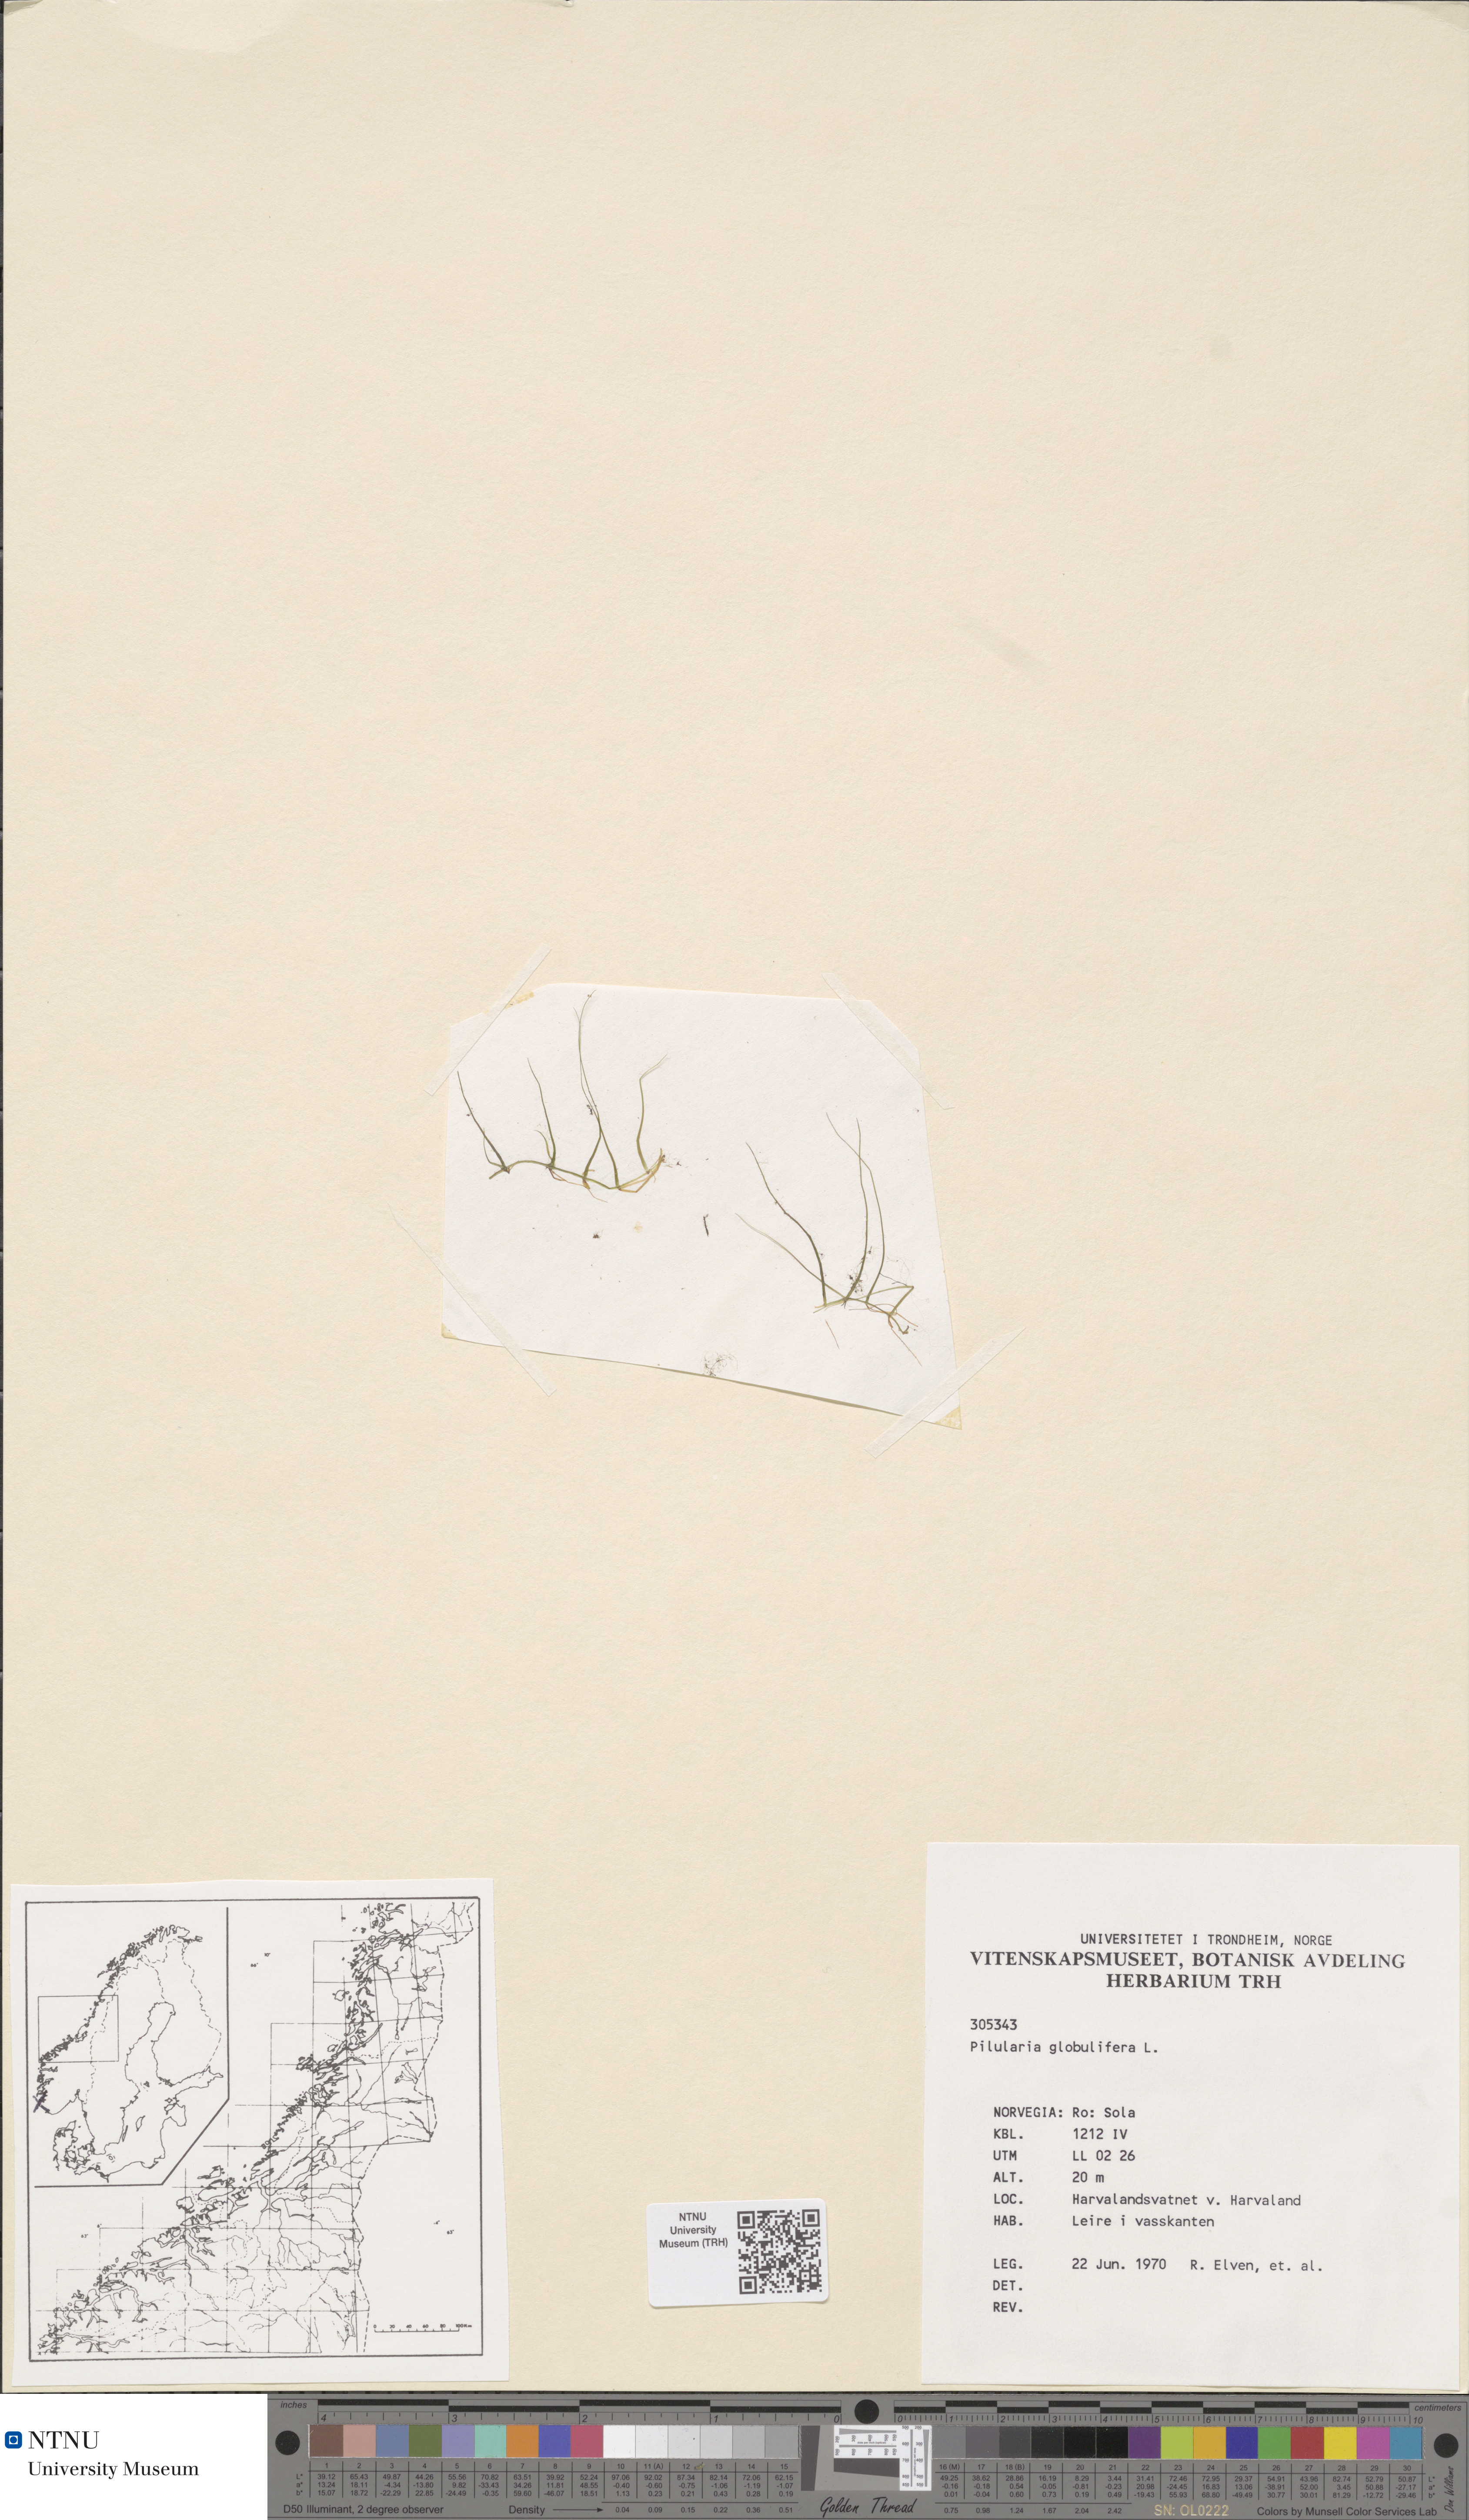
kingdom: Plantae
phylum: Tracheophyta
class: Polypodiopsida
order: Salviniales
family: Marsileaceae
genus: Pilularia
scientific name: Pilularia globulifera
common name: Pillwort
